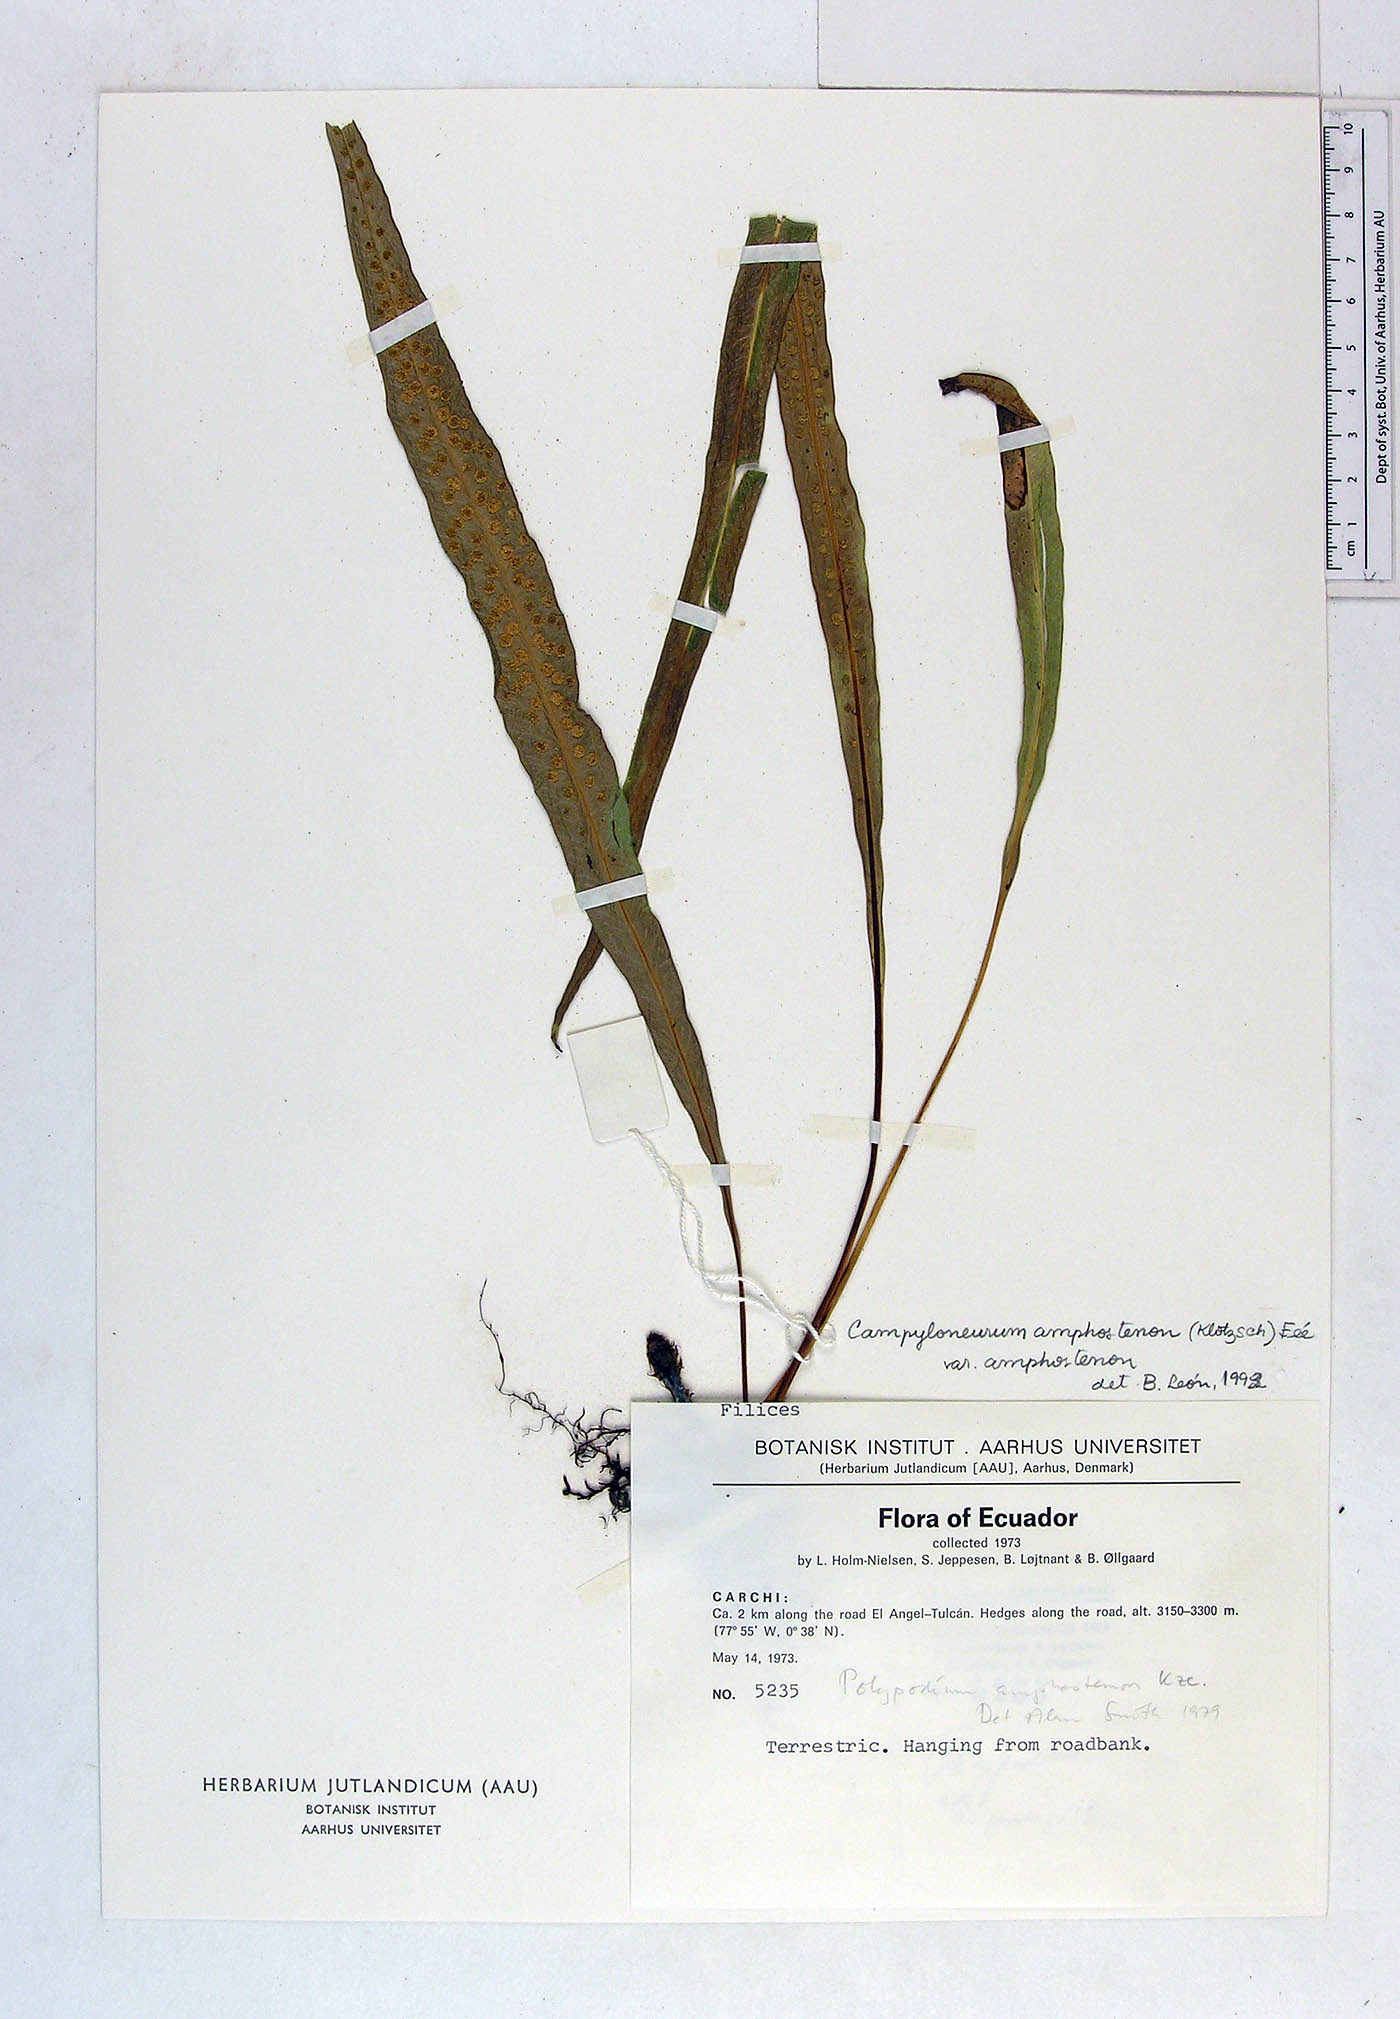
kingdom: Plantae
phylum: Tracheophyta
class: Polypodiopsida
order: Polypodiales
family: Polypodiaceae
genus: Campyloneurum
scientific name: Campyloneurum angustifolium
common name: Narrow-leaf strap fern
